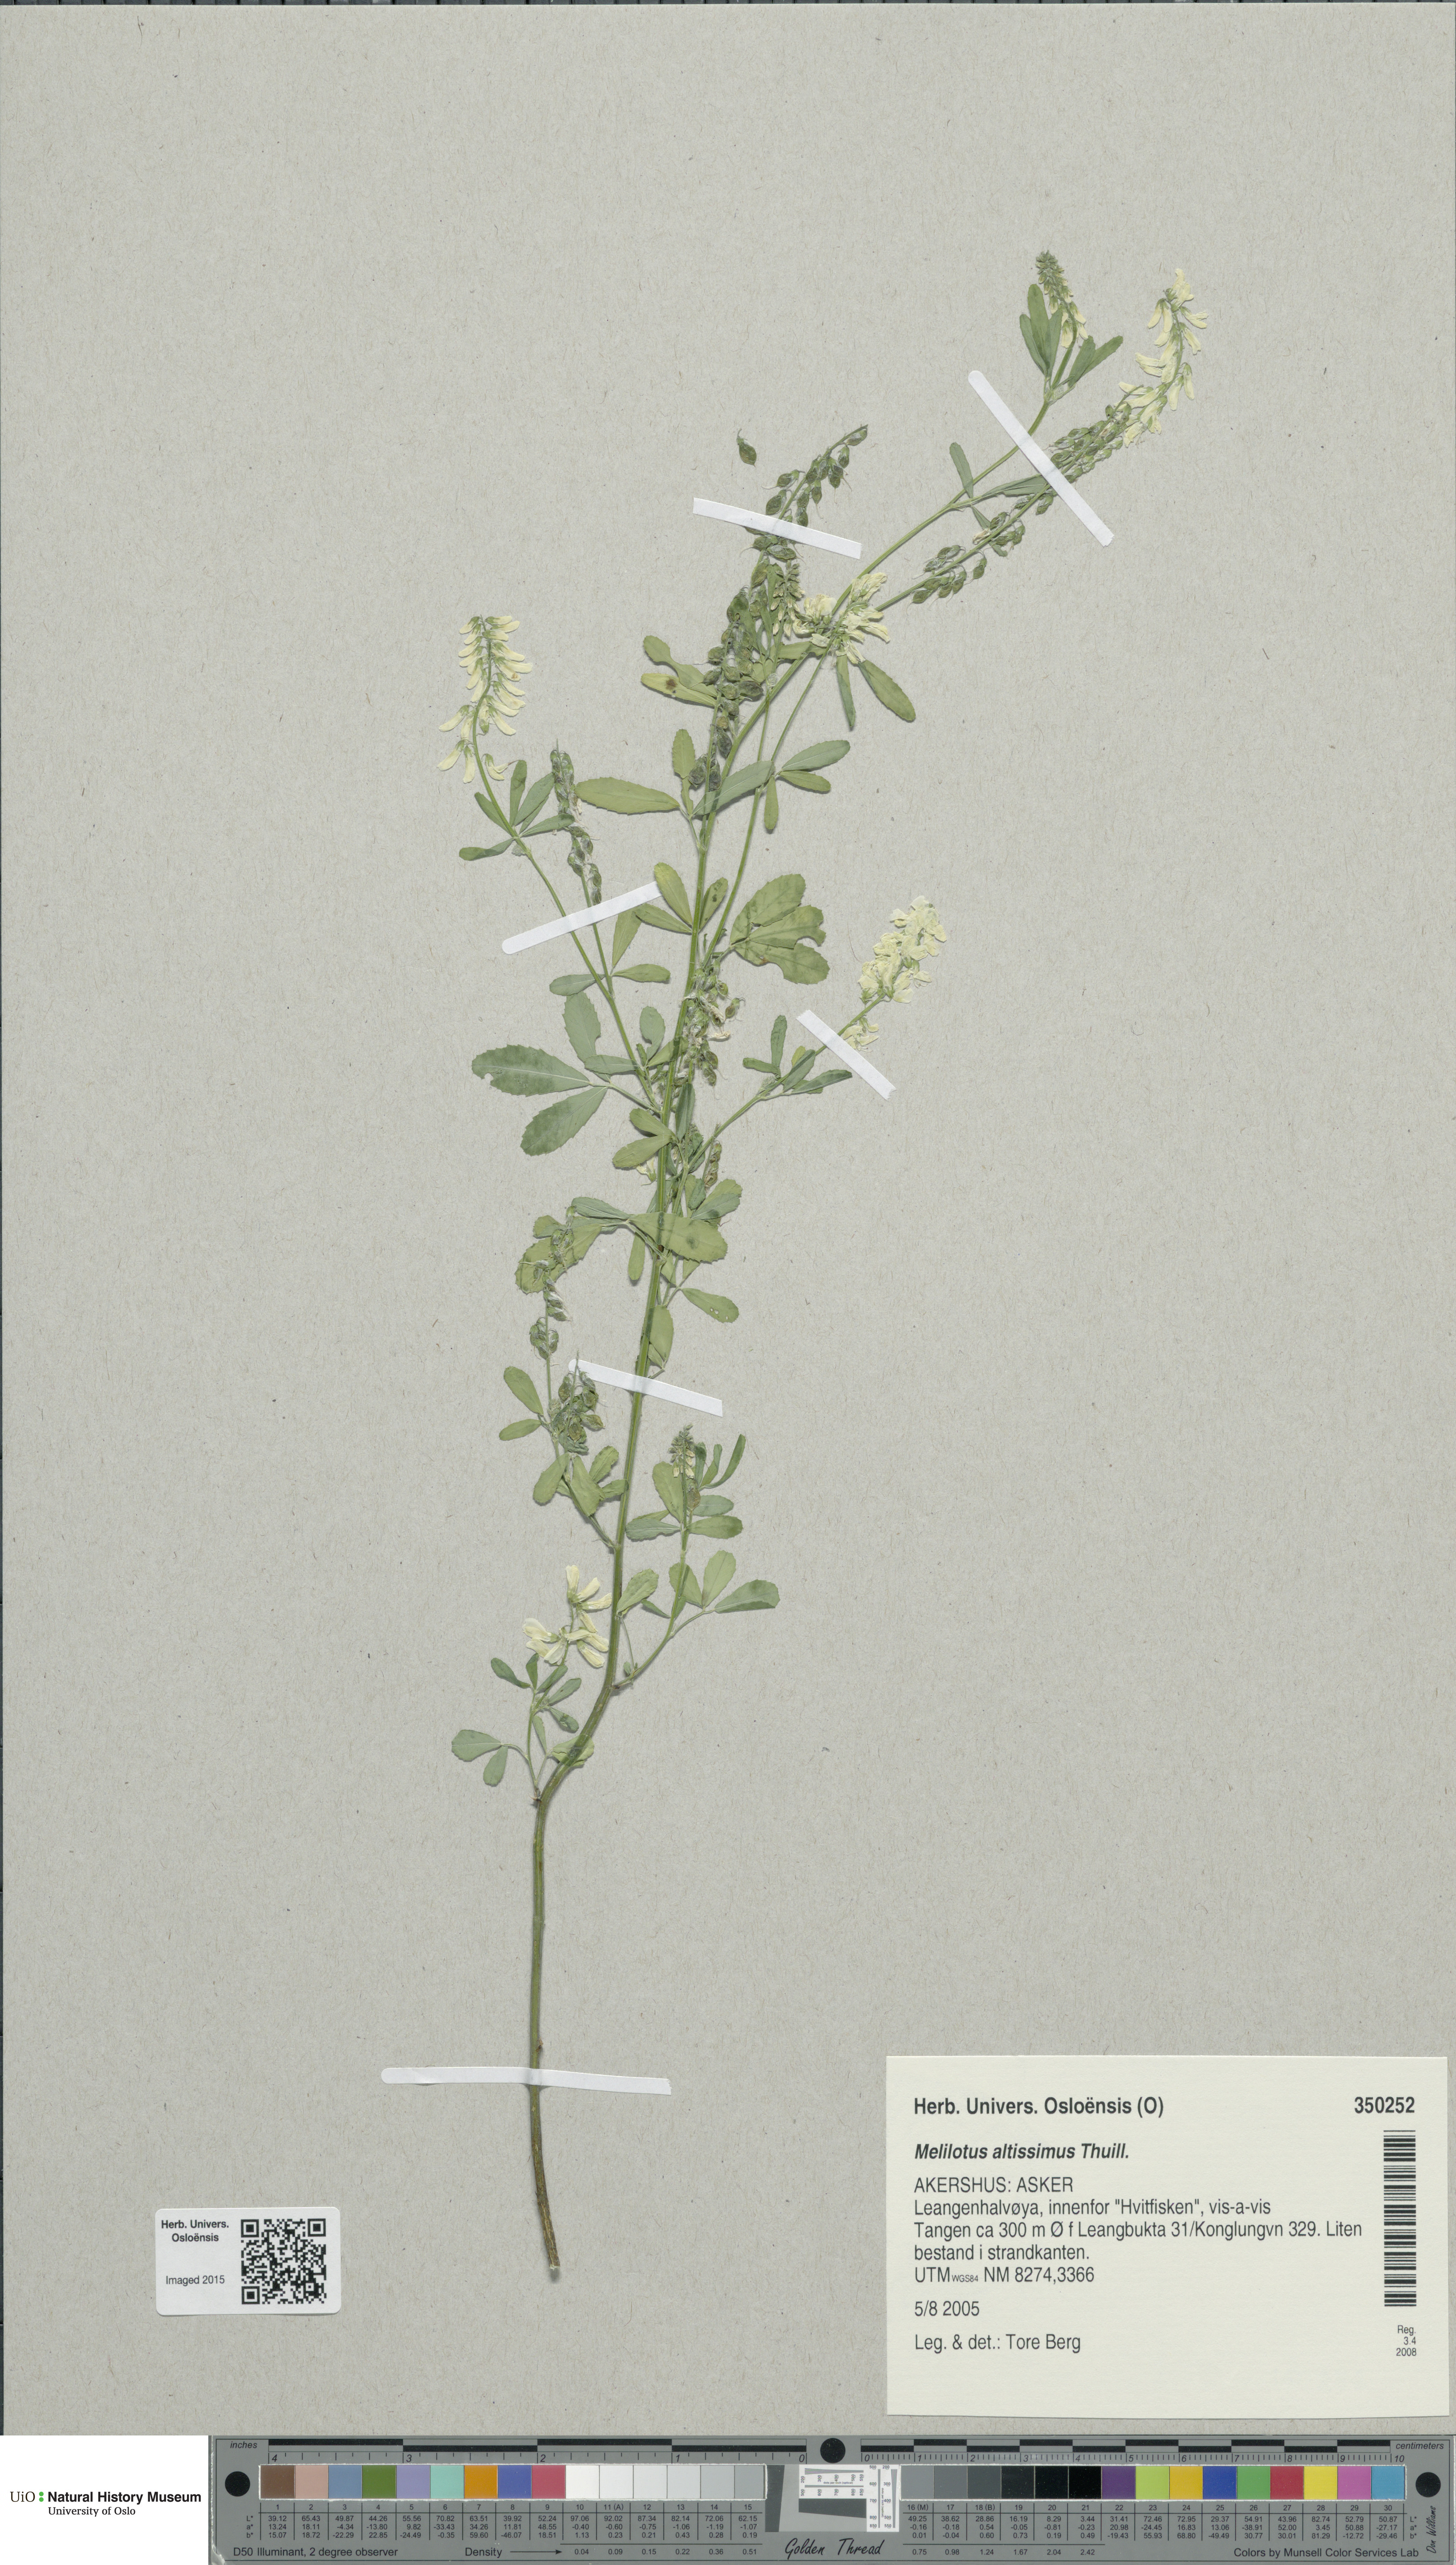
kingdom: Plantae
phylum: Tracheophyta
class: Magnoliopsida
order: Fabales
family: Fabaceae
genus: Melilotus
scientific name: Melilotus altissimus
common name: Tall melilot
